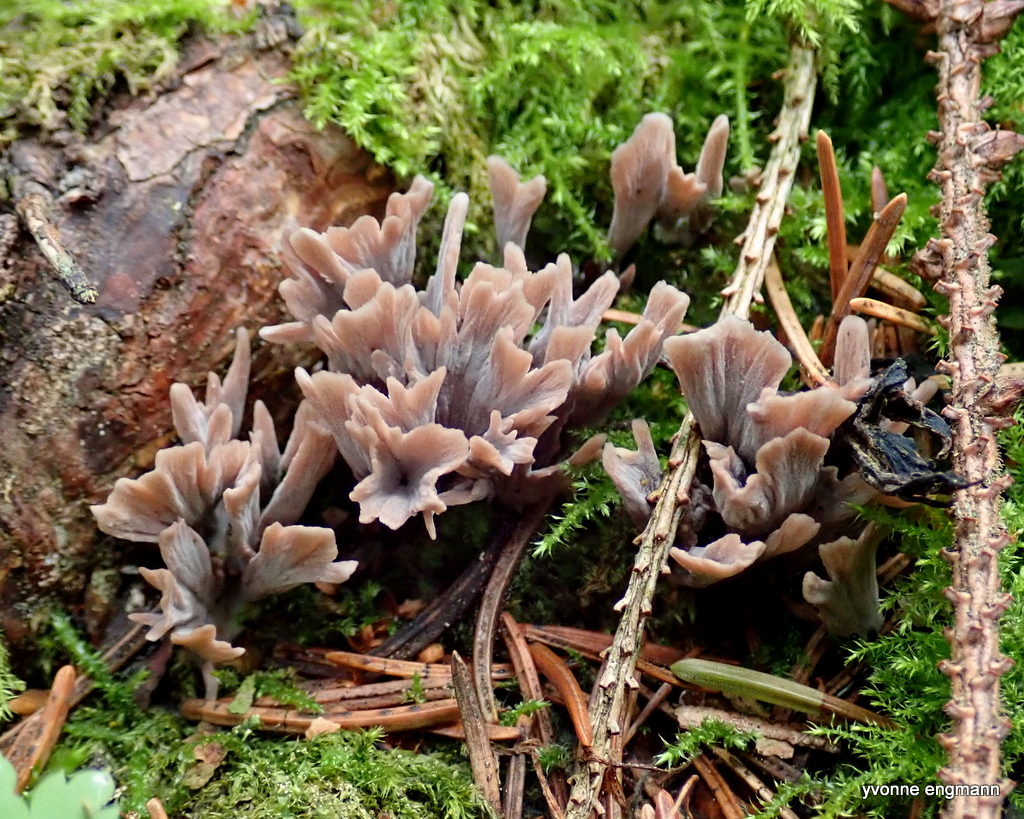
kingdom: Fungi
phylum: Basidiomycota
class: Agaricomycetes
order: Thelephorales
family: Thelephoraceae
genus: Thelephora
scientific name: Thelephora palmata
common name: grenet frynsesvamp
